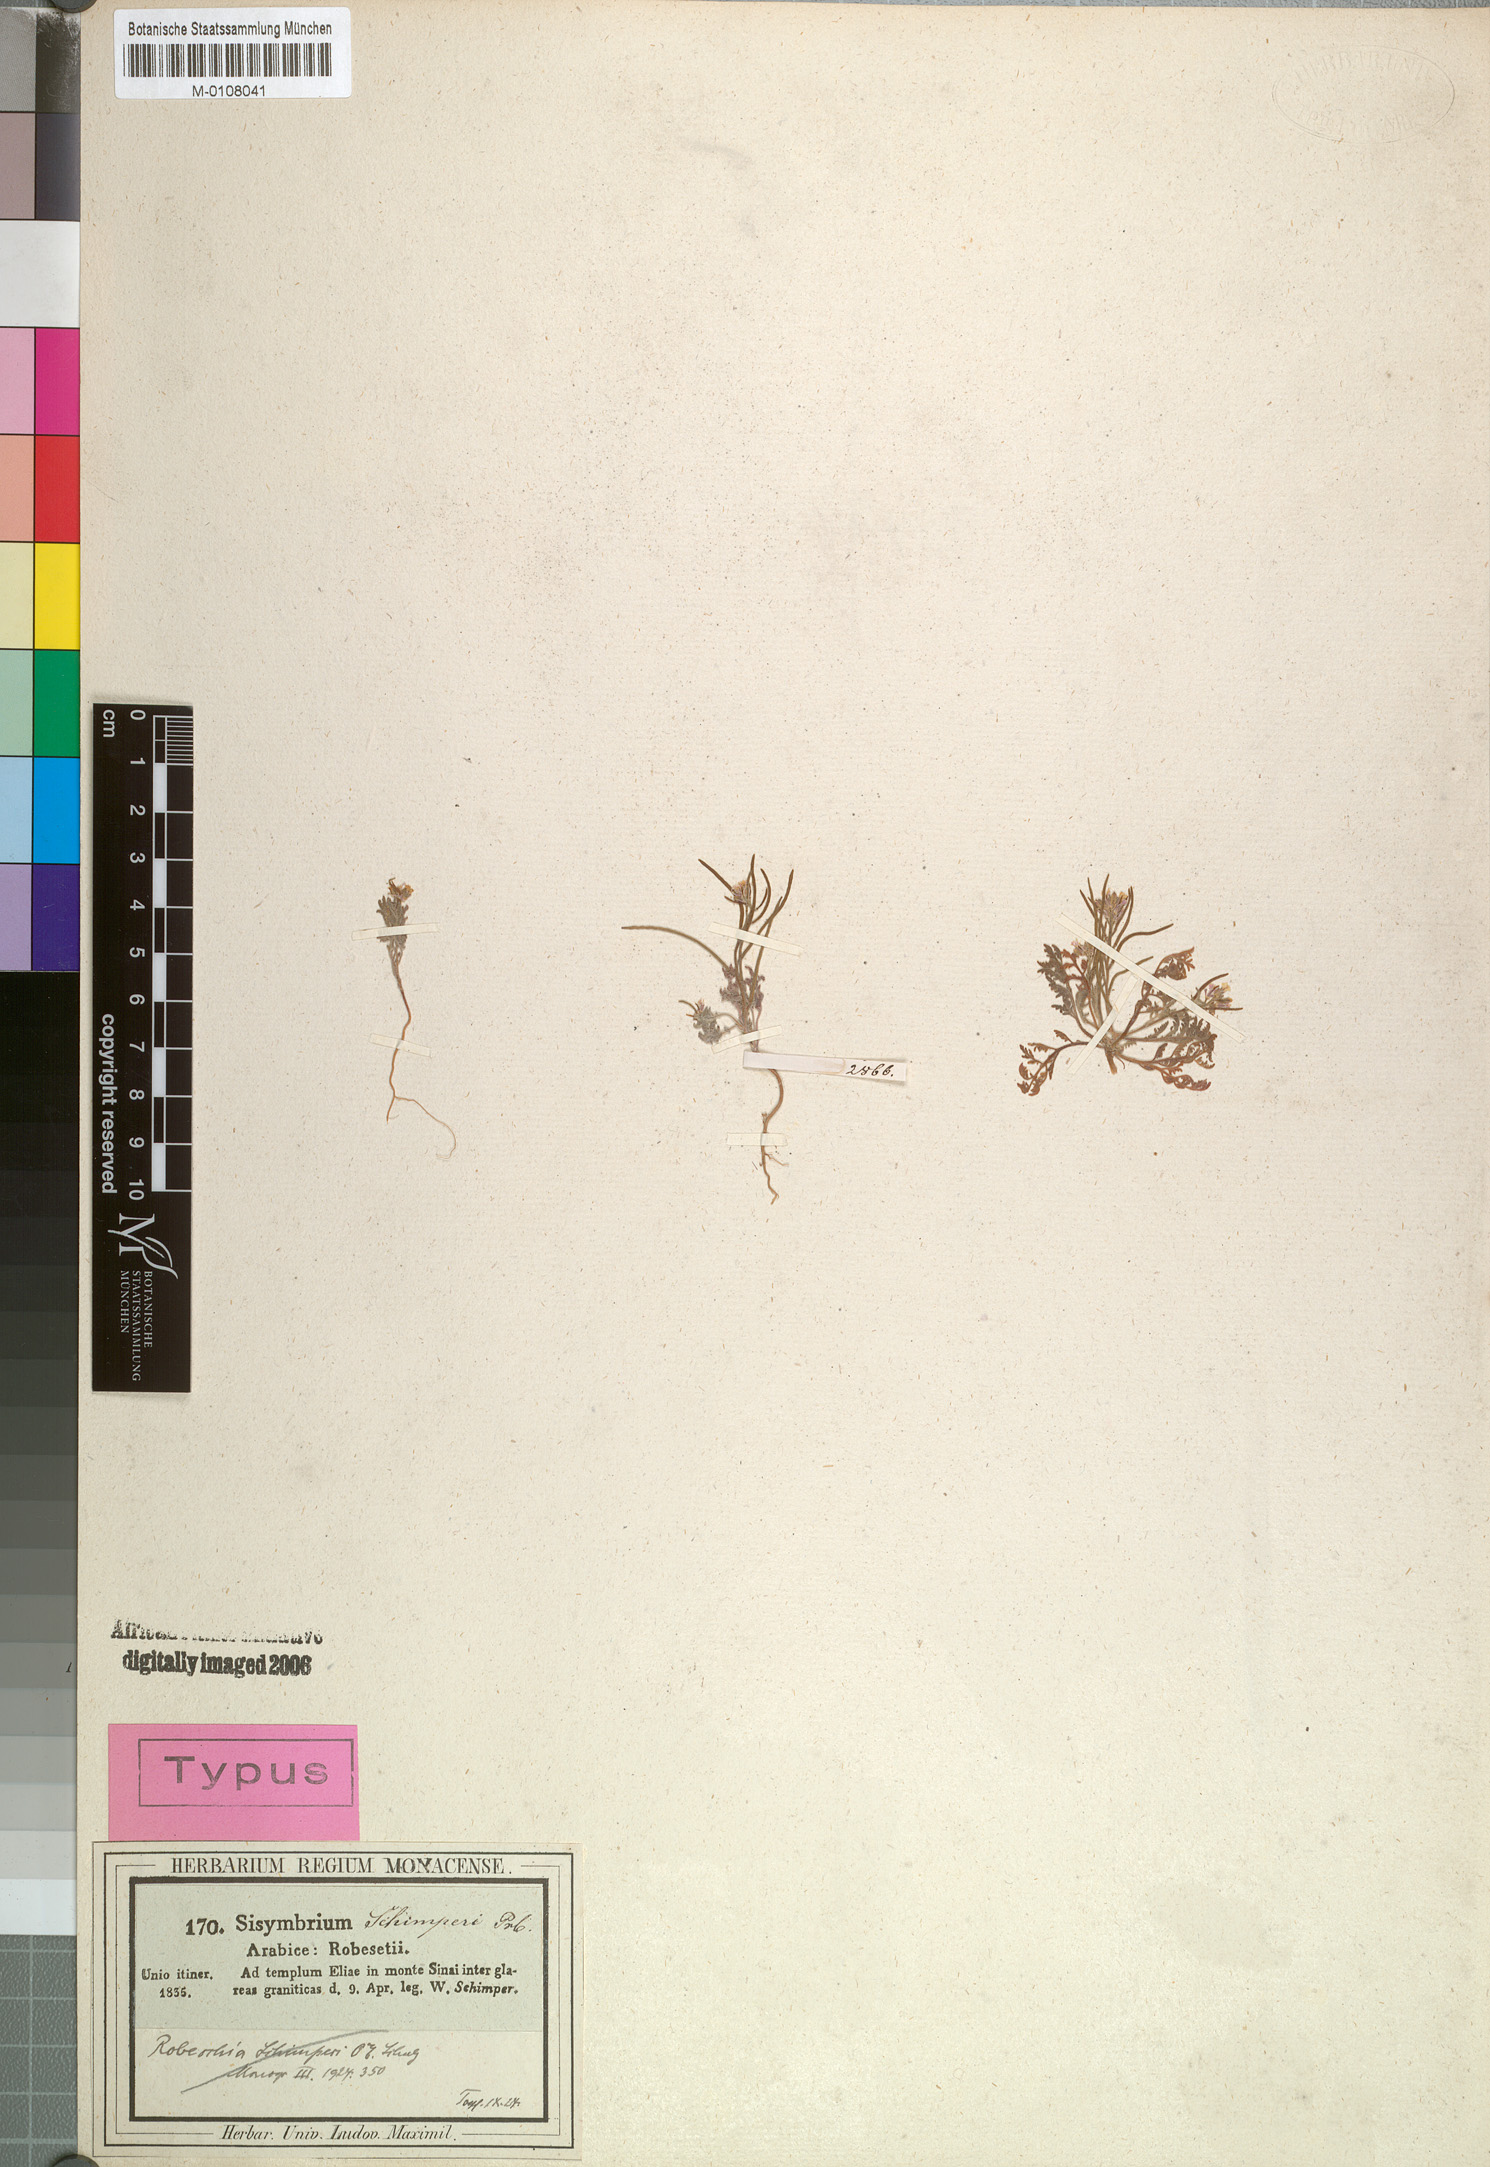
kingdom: Plantae
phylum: Tracheophyta
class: Magnoliopsida
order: Brassicales
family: Brassicaceae
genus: Robeschia
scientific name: Robeschia schimperi
